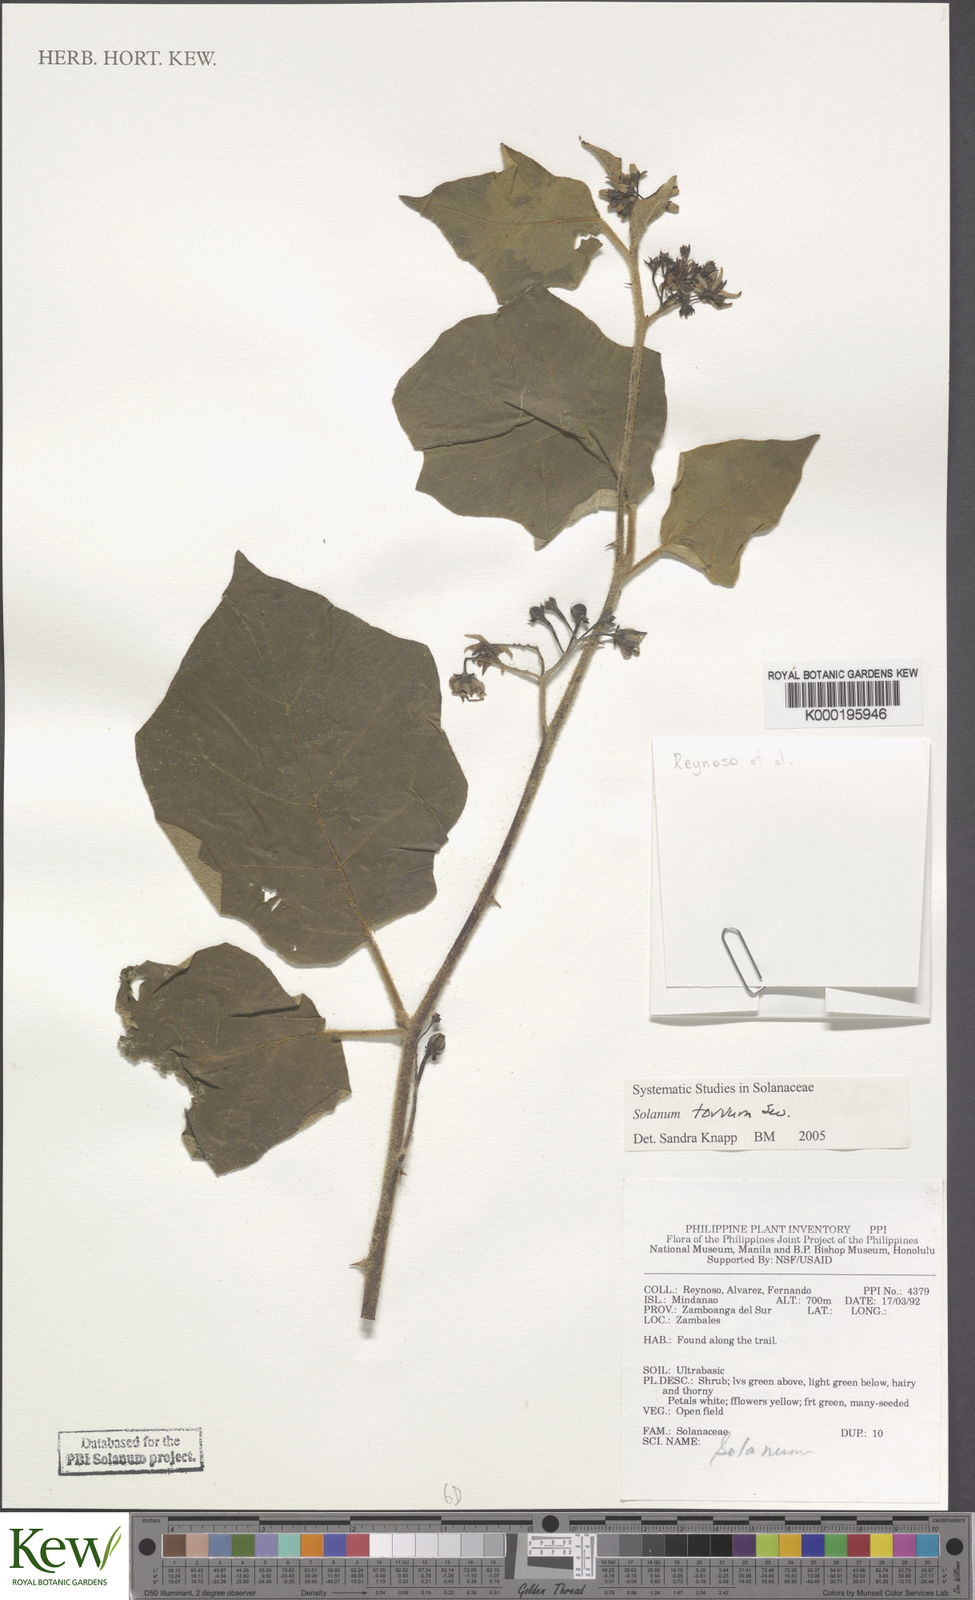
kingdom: Plantae
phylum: Tracheophyta
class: Magnoliopsida
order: Solanales
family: Solanaceae
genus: Solanum
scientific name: Solanum torvum
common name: Turkey berry
